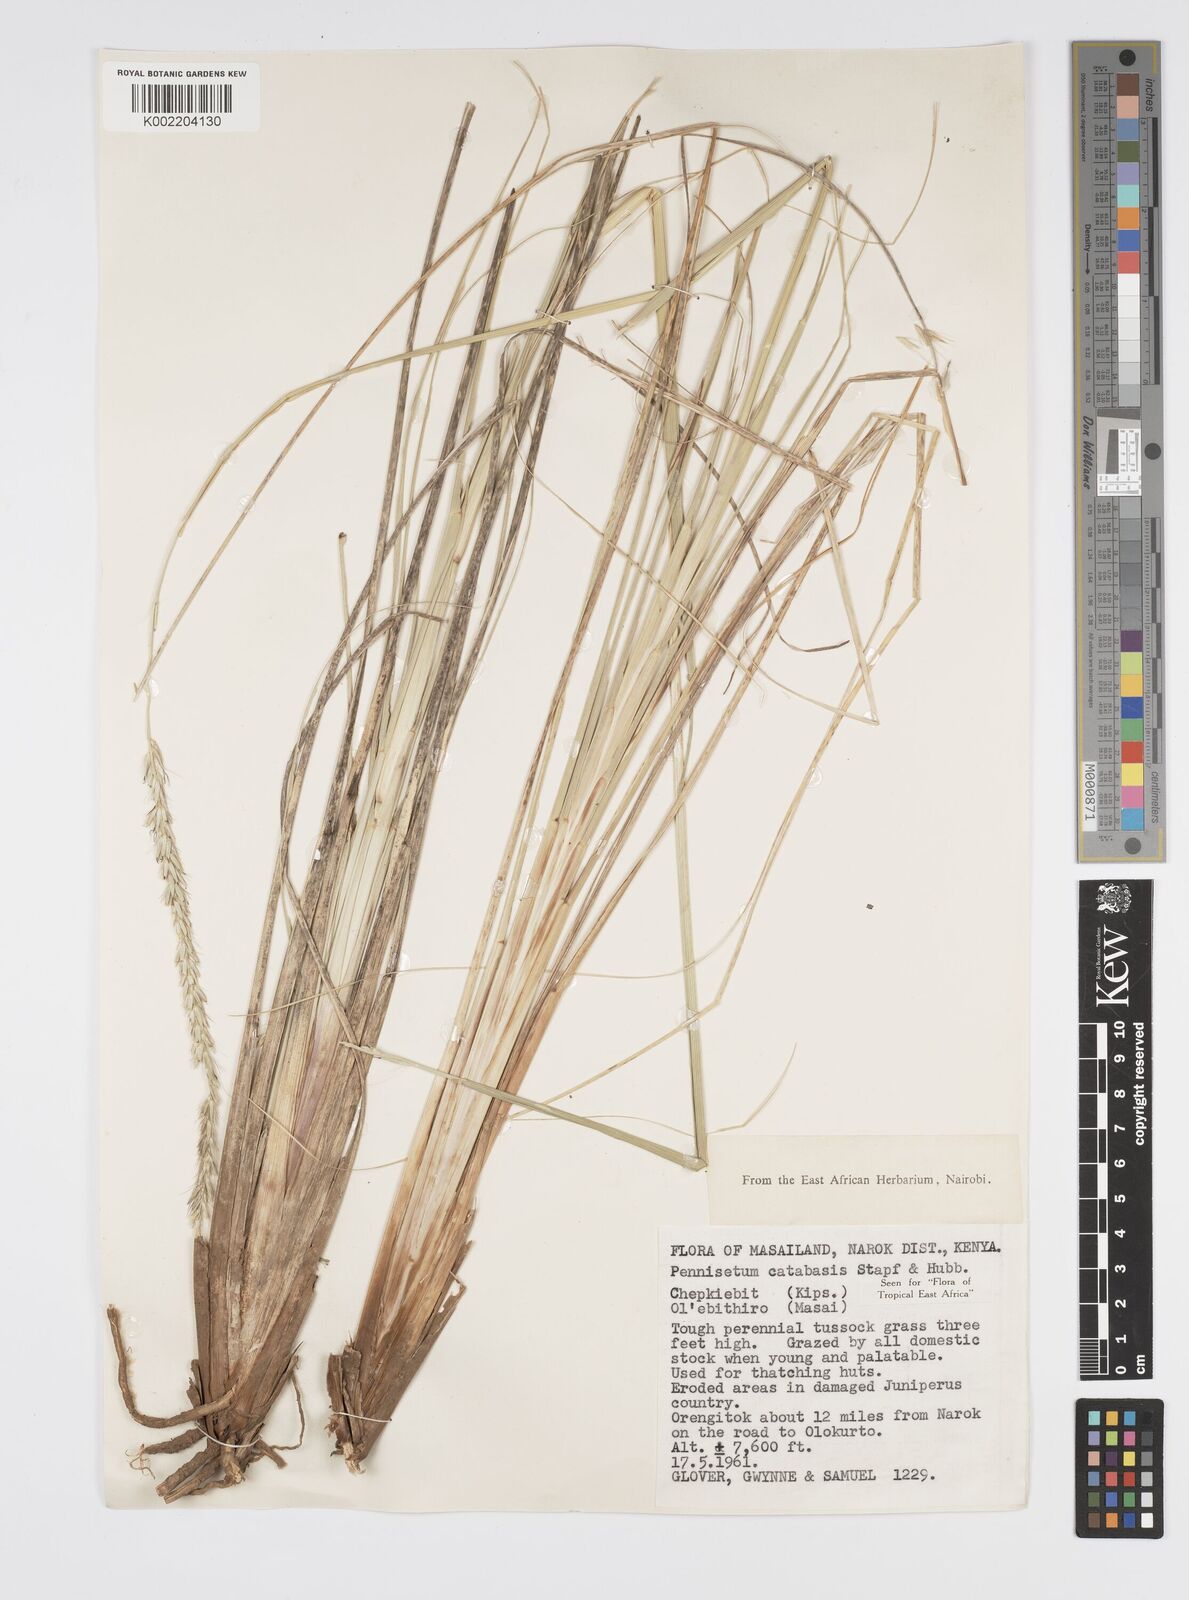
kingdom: Plantae
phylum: Tracheophyta
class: Liliopsida
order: Poales
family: Poaceae
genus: Cenchrus
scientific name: Cenchrus hohenackeri
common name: Moya grass
